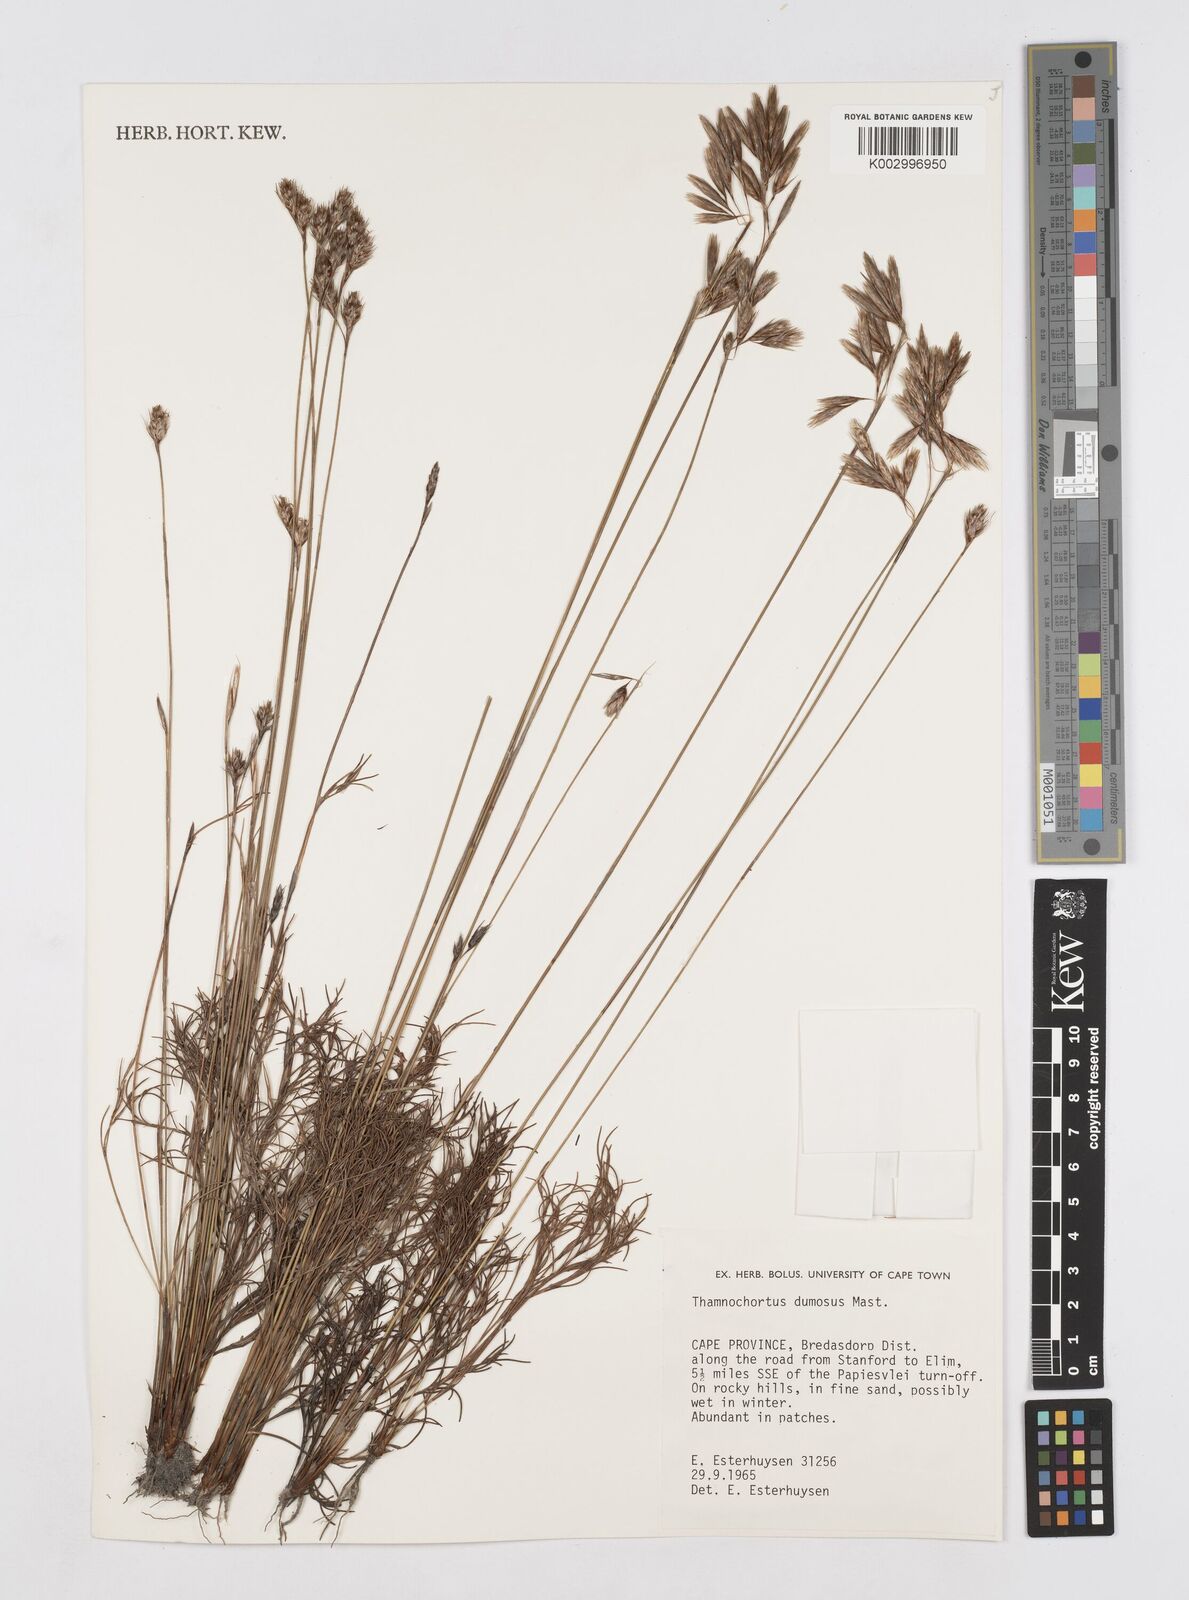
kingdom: Plantae
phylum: Tracheophyta
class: Liliopsida
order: Poales
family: Restionaceae
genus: Thamnochortus
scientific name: Thamnochortus dumosus
